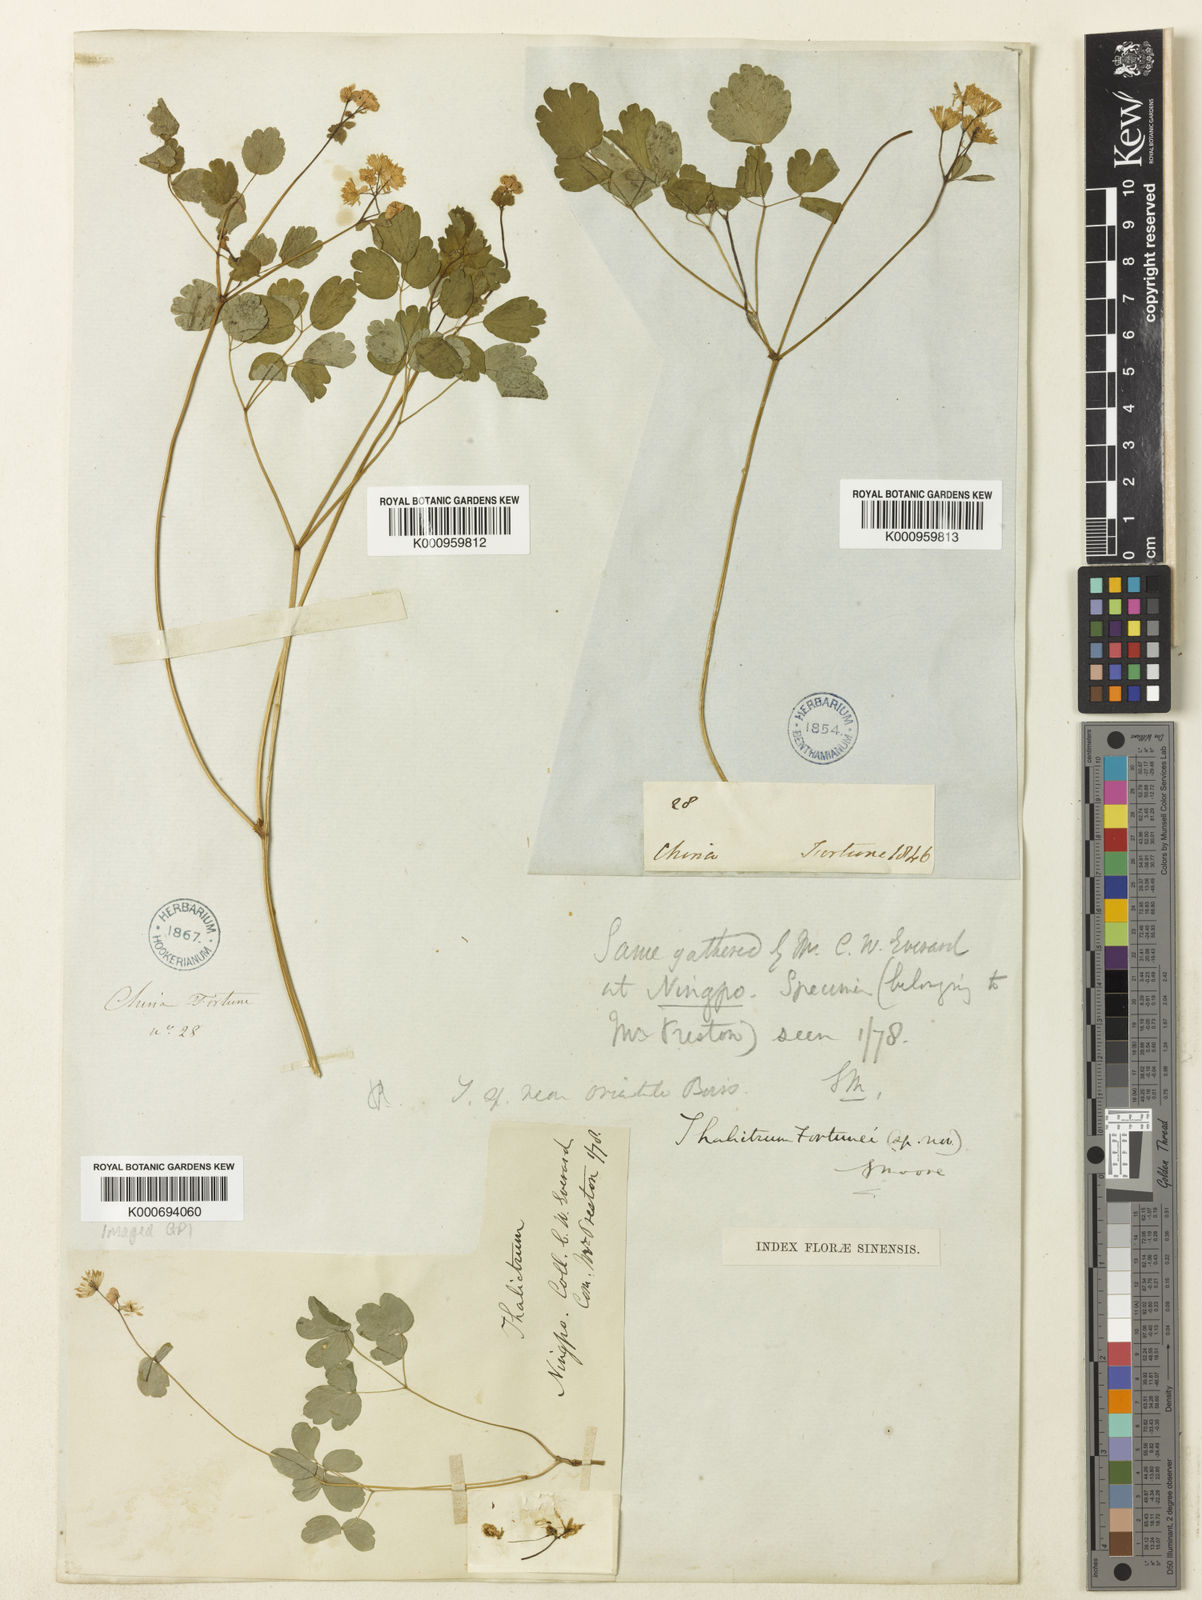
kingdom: Plantae
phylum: Tracheophyta
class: Magnoliopsida
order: Ranunculales
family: Ranunculaceae
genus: Thalictrum
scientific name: Thalictrum fortunei
